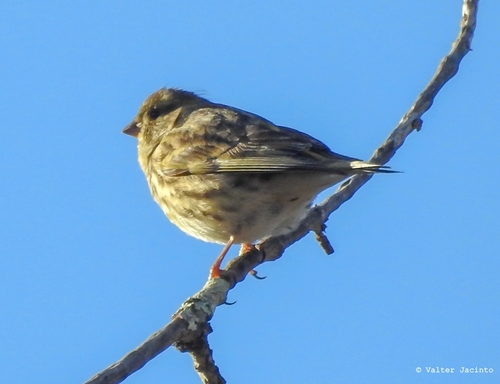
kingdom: Animalia
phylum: Chordata
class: Aves
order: Passeriformes
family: Fringillidae
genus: Serinus
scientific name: Serinus serinus
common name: European serin
